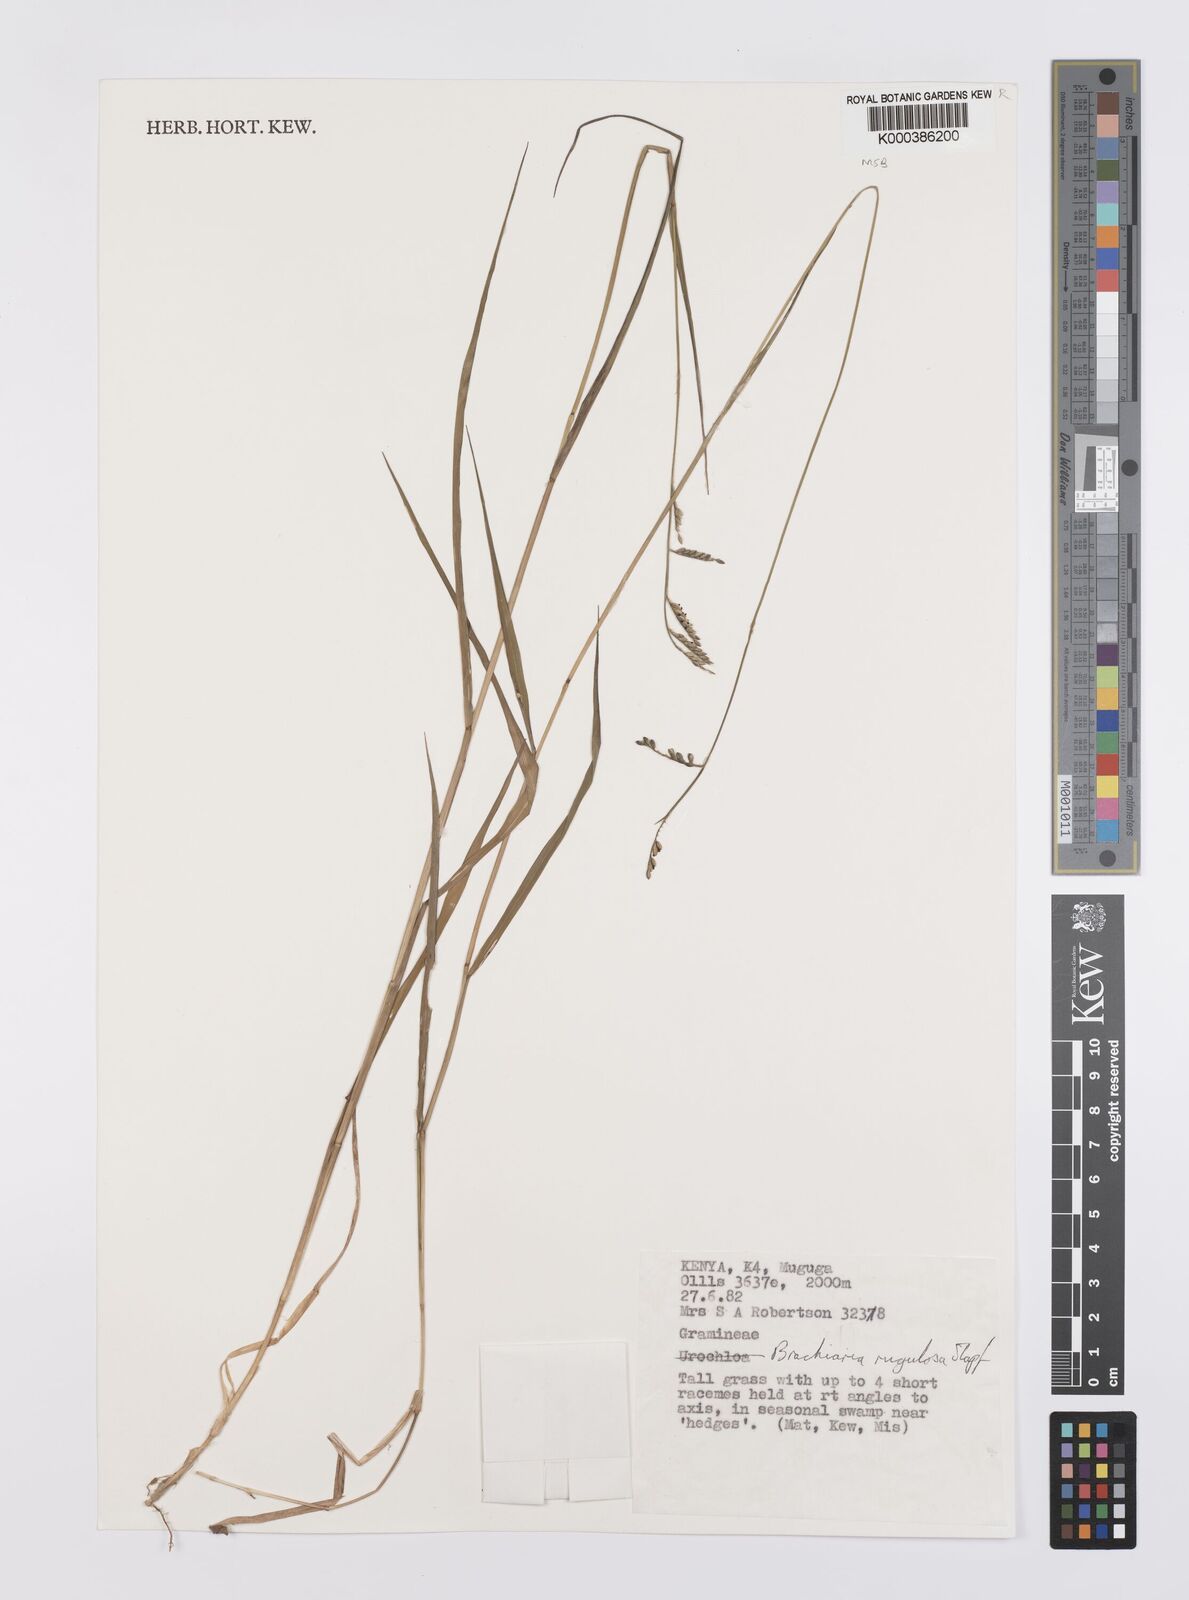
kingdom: Plantae
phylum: Tracheophyta
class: Liliopsida
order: Poales
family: Poaceae
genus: Urochloa
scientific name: Urochloa rugulosa
